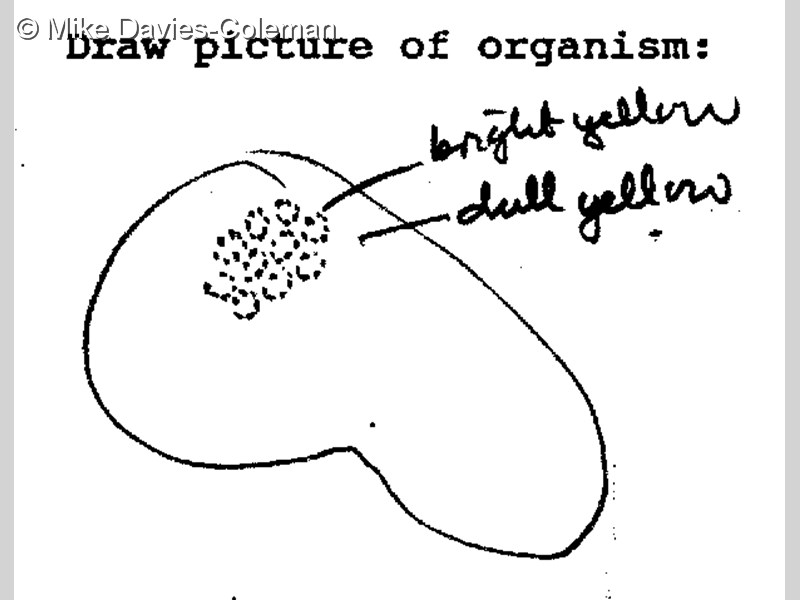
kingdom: Animalia
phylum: Chordata
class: Ascidiacea
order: Aplousobranchia
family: Polyclinidae
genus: Polyclinum
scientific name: Polyclinum
